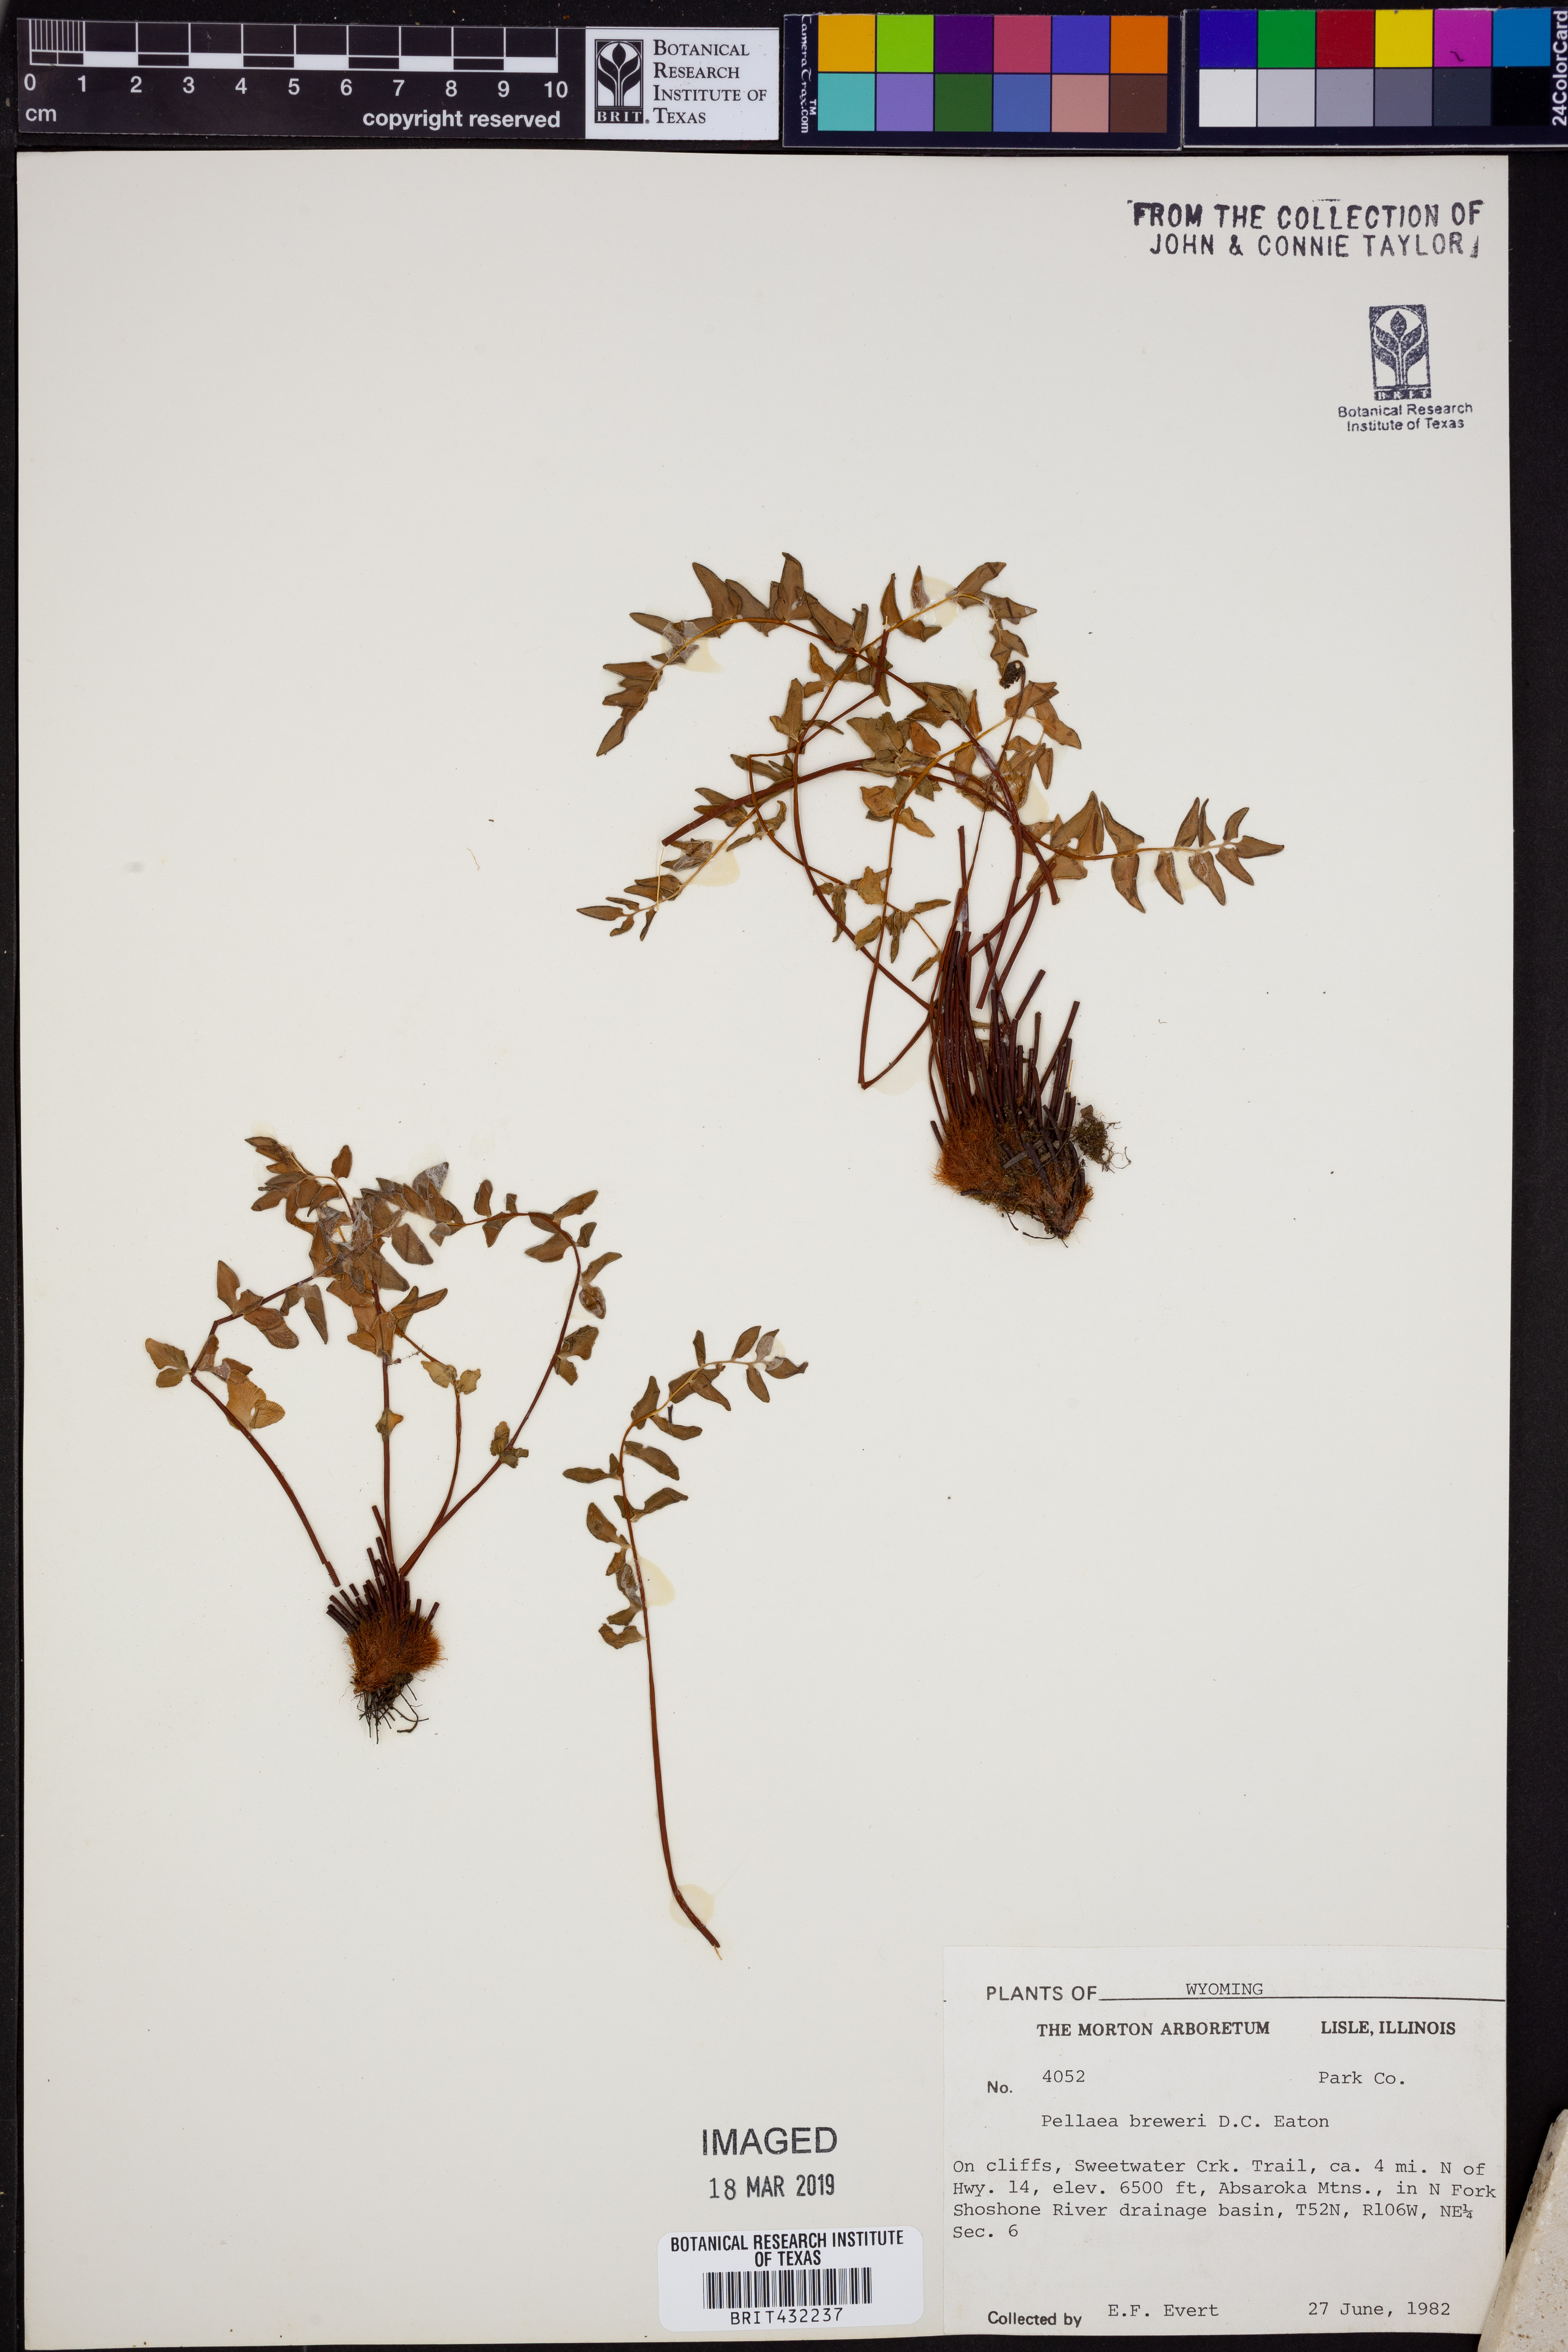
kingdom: Plantae
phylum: Tracheophyta
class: Polypodiopsida
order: Polypodiales
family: Pteridaceae
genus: Pellaea
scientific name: Pellaea breweri
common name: Brewer's cliffbrake
